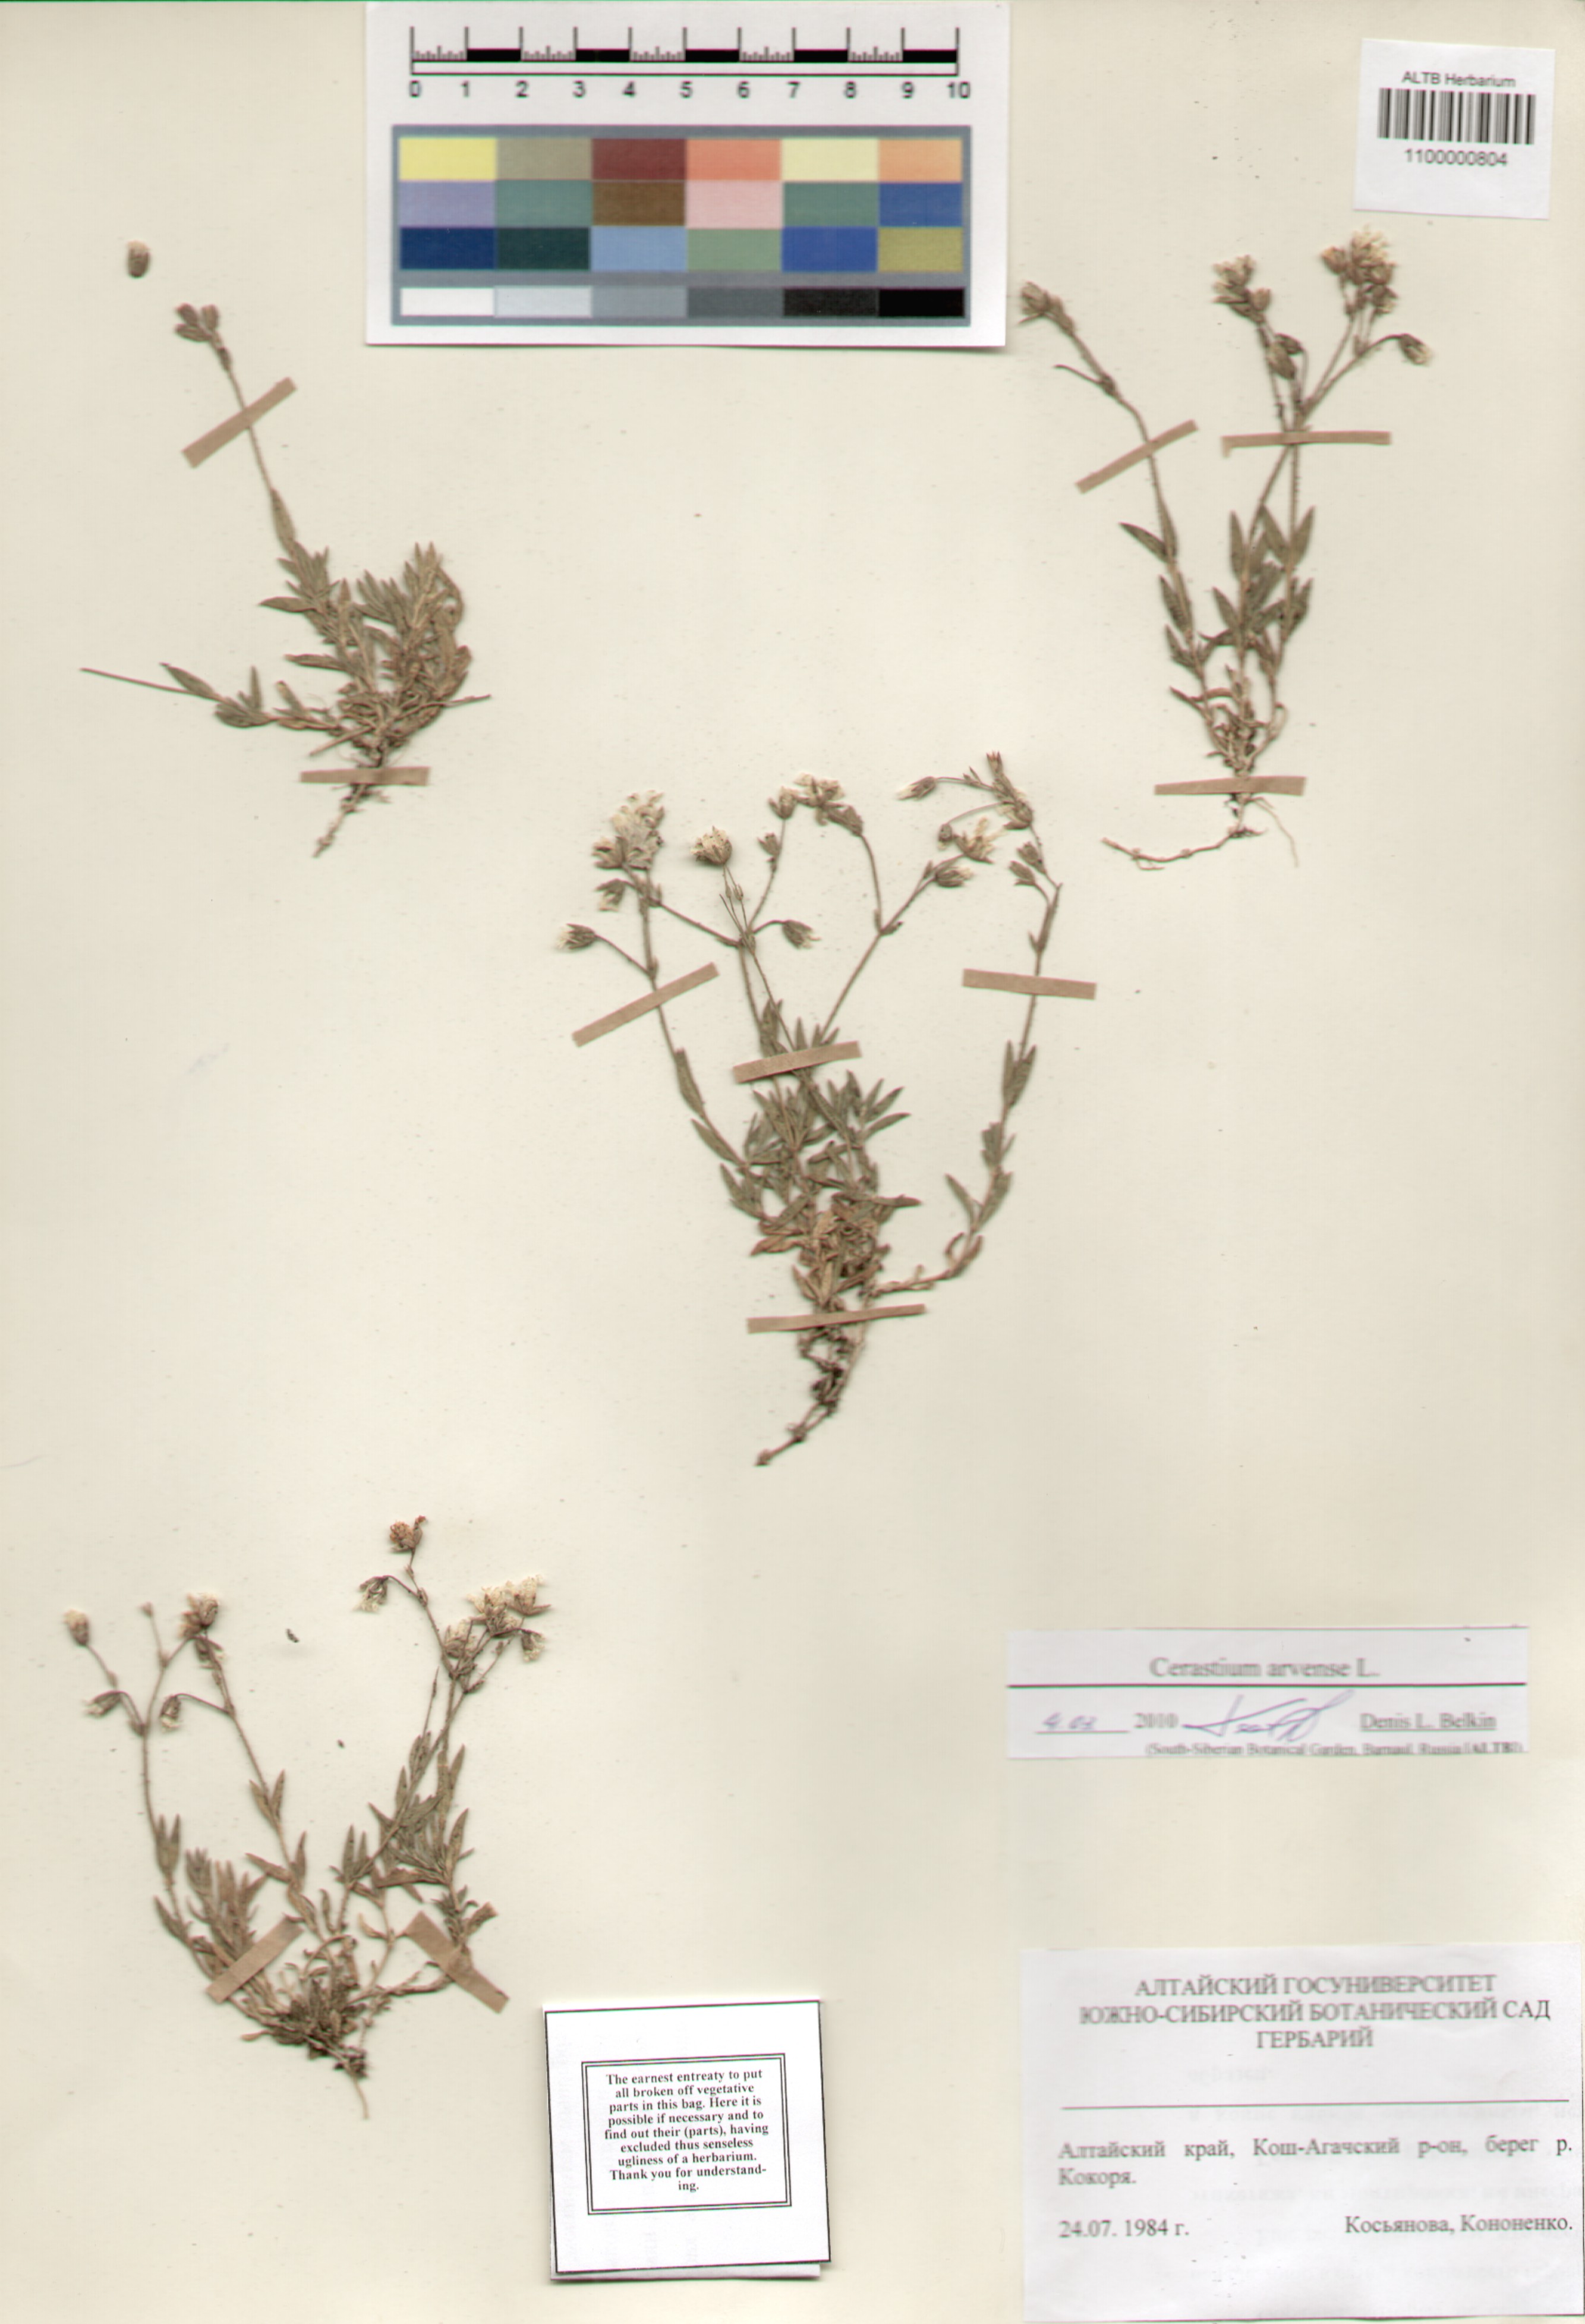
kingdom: Plantae
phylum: Tracheophyta
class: Magnoliopsida
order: Caryophyllales
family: Caryophyllaceae
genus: Cerastium
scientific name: Cerastium arvense
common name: Field mouse-ear
